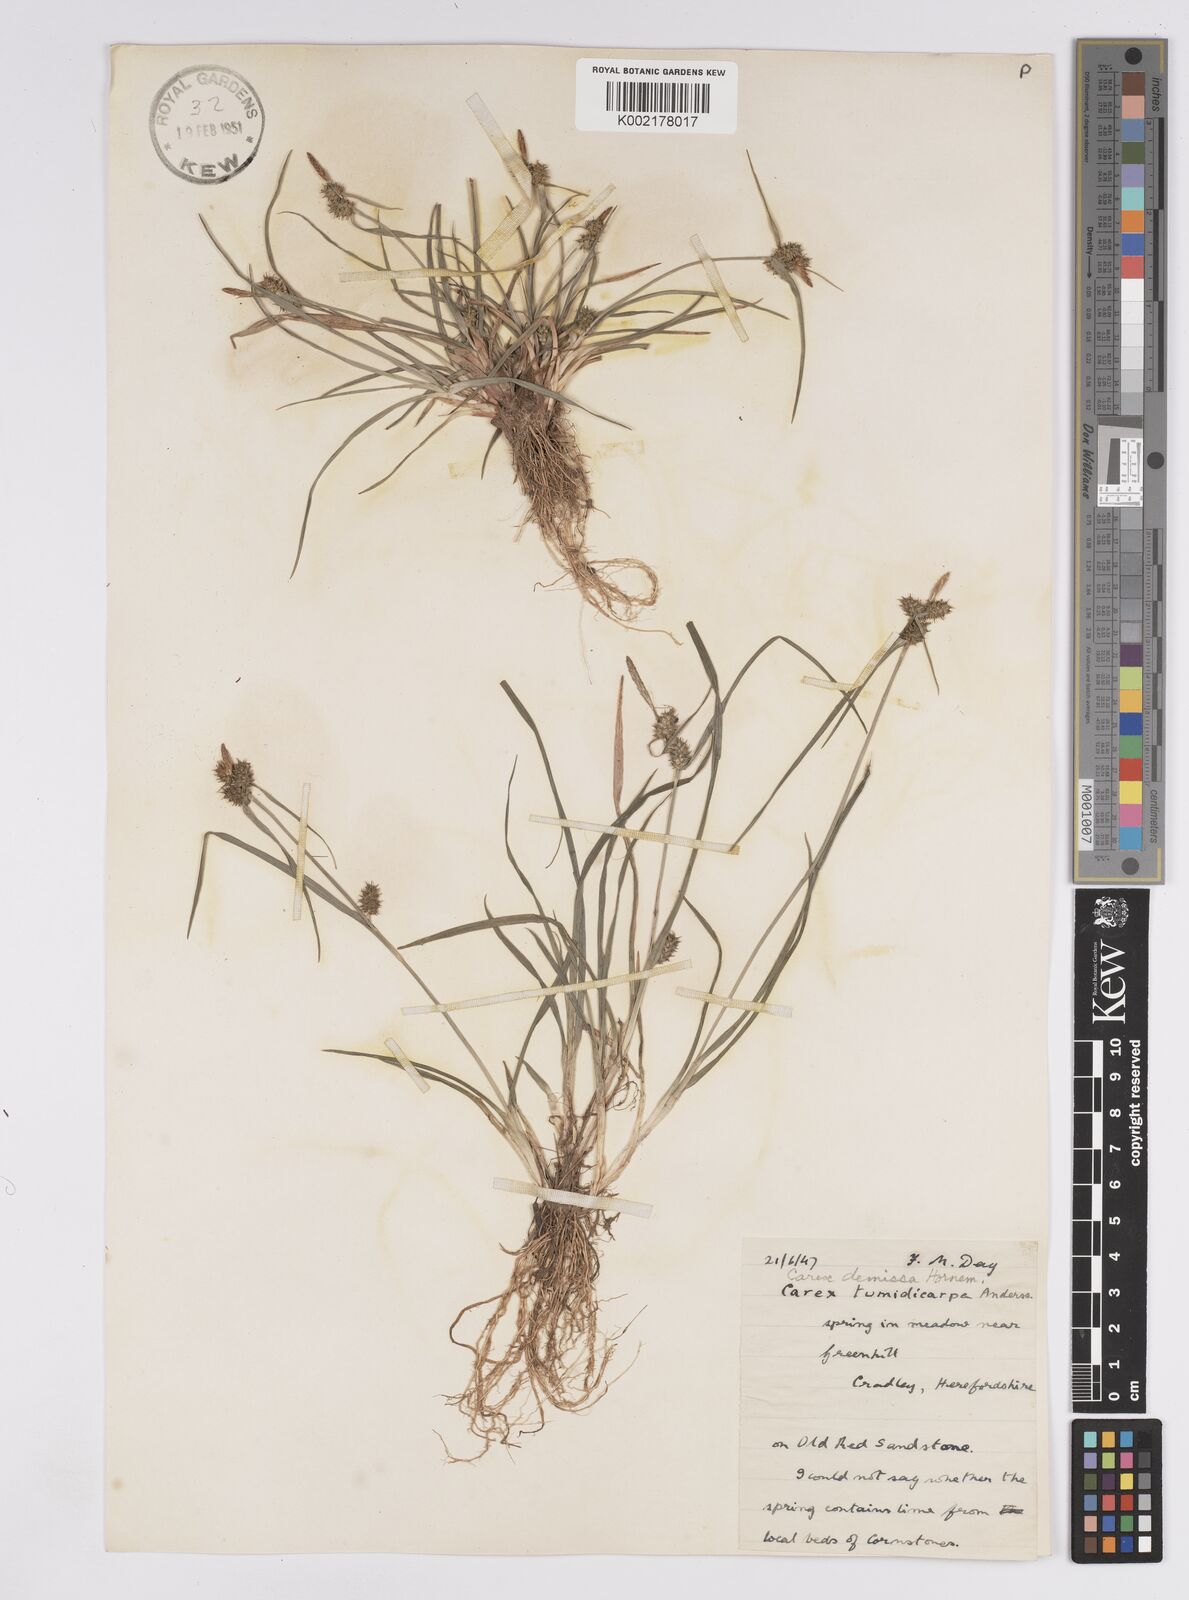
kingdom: Plantae
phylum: Tracheophyta
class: Liliopsida
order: Poales
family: Cyperaceae
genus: Carex
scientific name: Carex demissa
